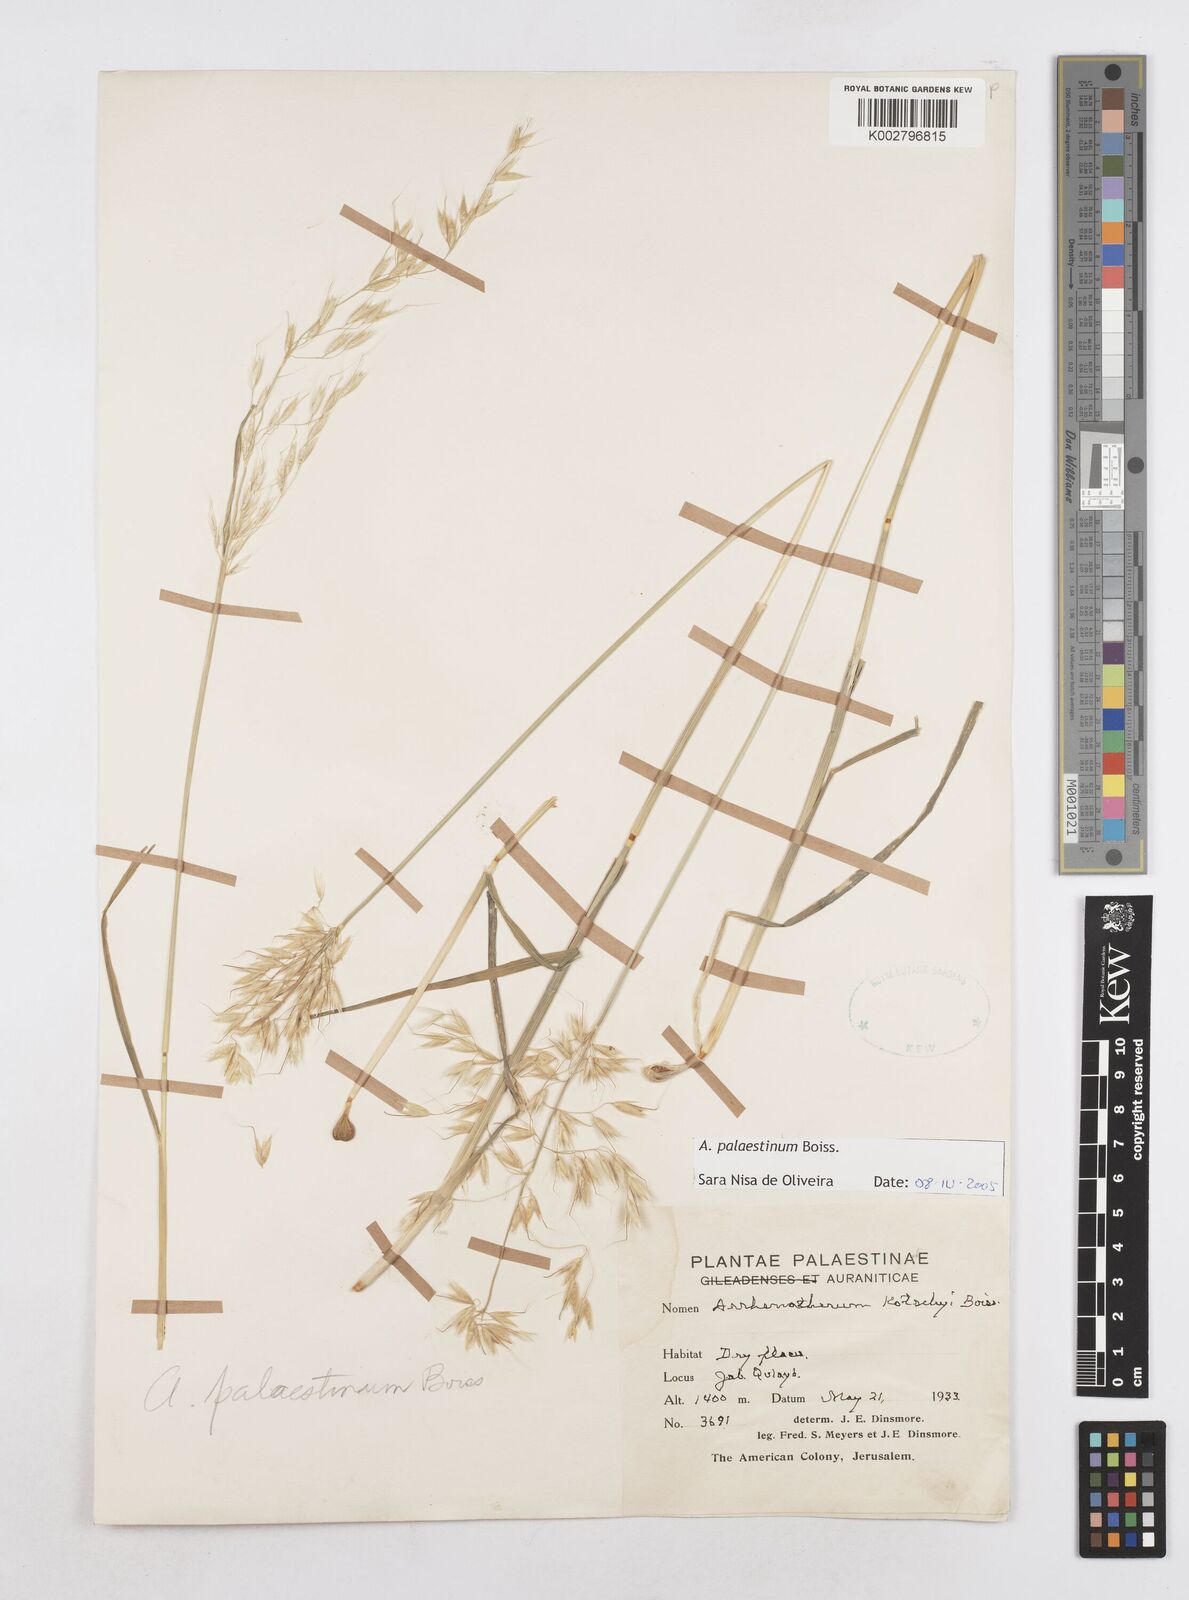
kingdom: Plantae
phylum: Tracheophyta
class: Liliopsida
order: Poales
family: Poaceae
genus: Arrhenatherum
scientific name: Arrhenatherum palaestinum
